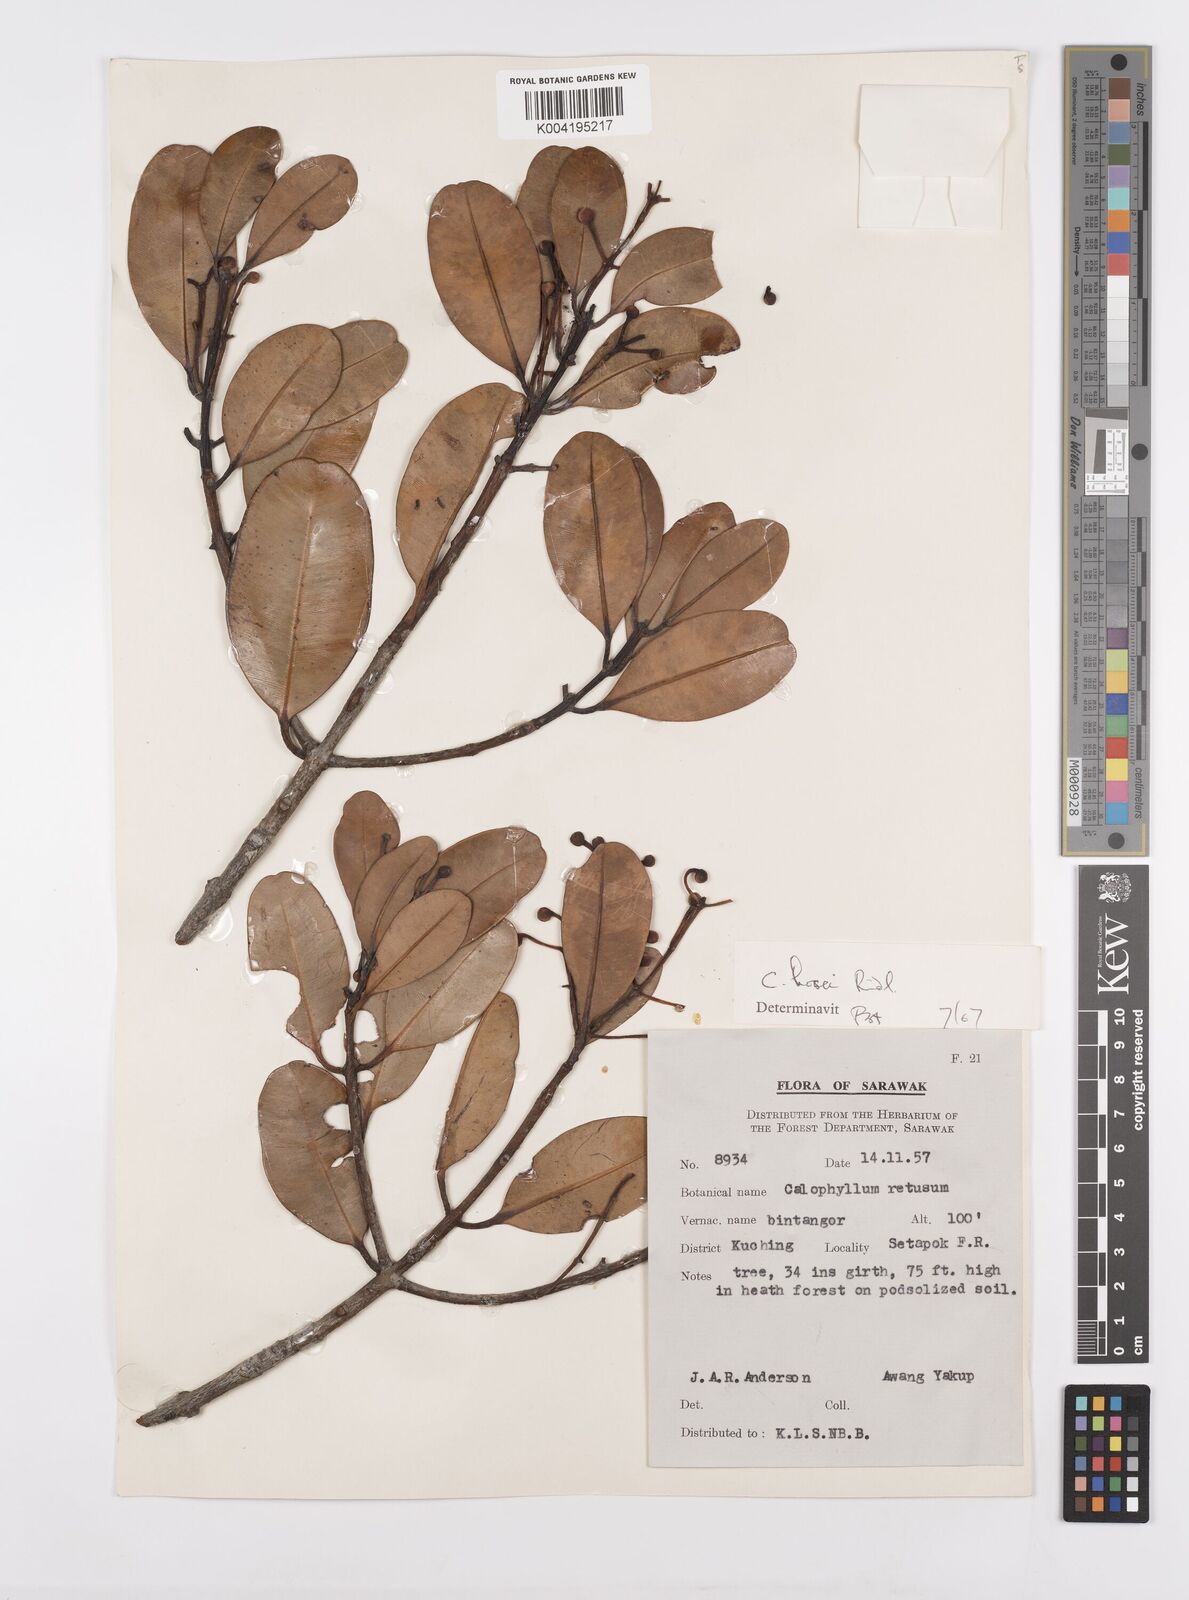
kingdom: Plantae
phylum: Tracheophyta
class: Magnoliopsida
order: Malpighiales
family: Calophyllaceae
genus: Calophyllum
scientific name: Calophyllum hosei
